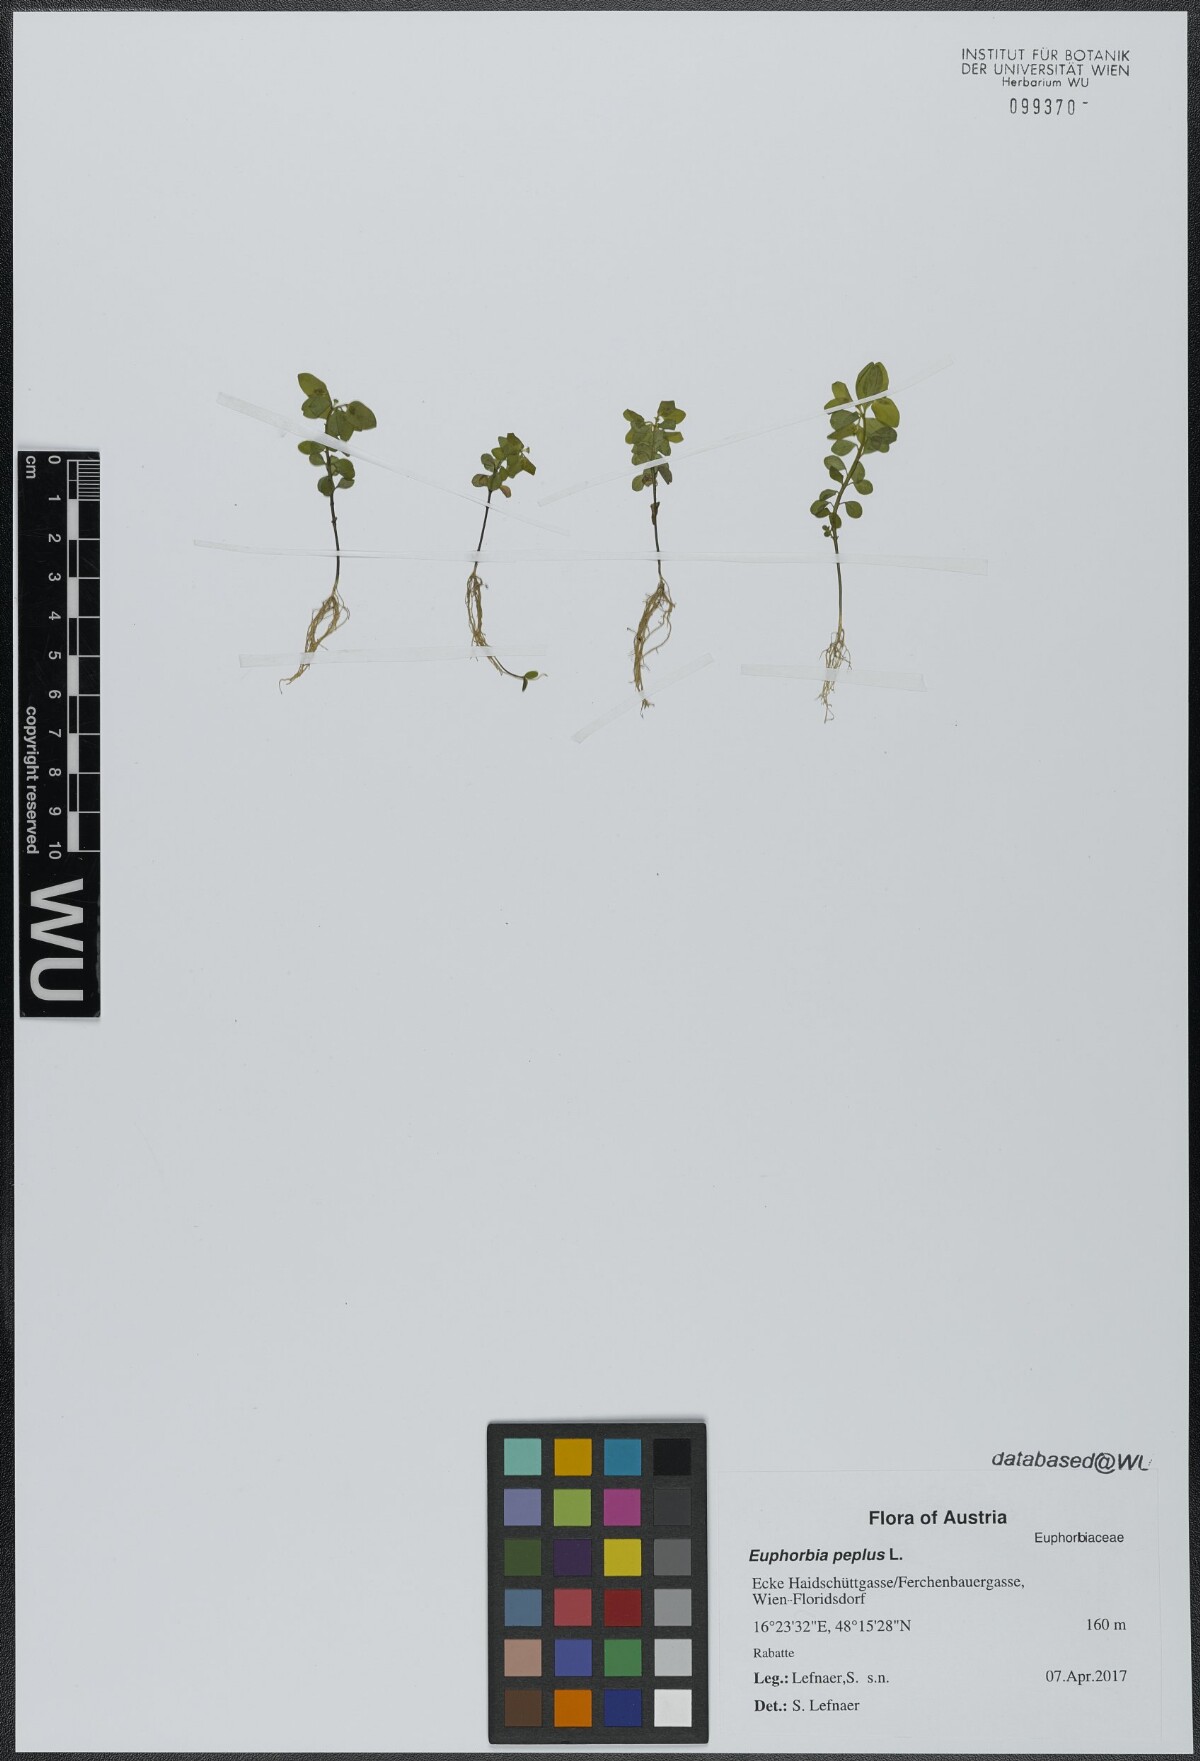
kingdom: Plantae
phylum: Tracheophyta
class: Magnoliopsida
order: Malpighiales
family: Euphorbiaceae
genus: Euphorbia
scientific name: Euphorbia peplus
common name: Petty spurge
